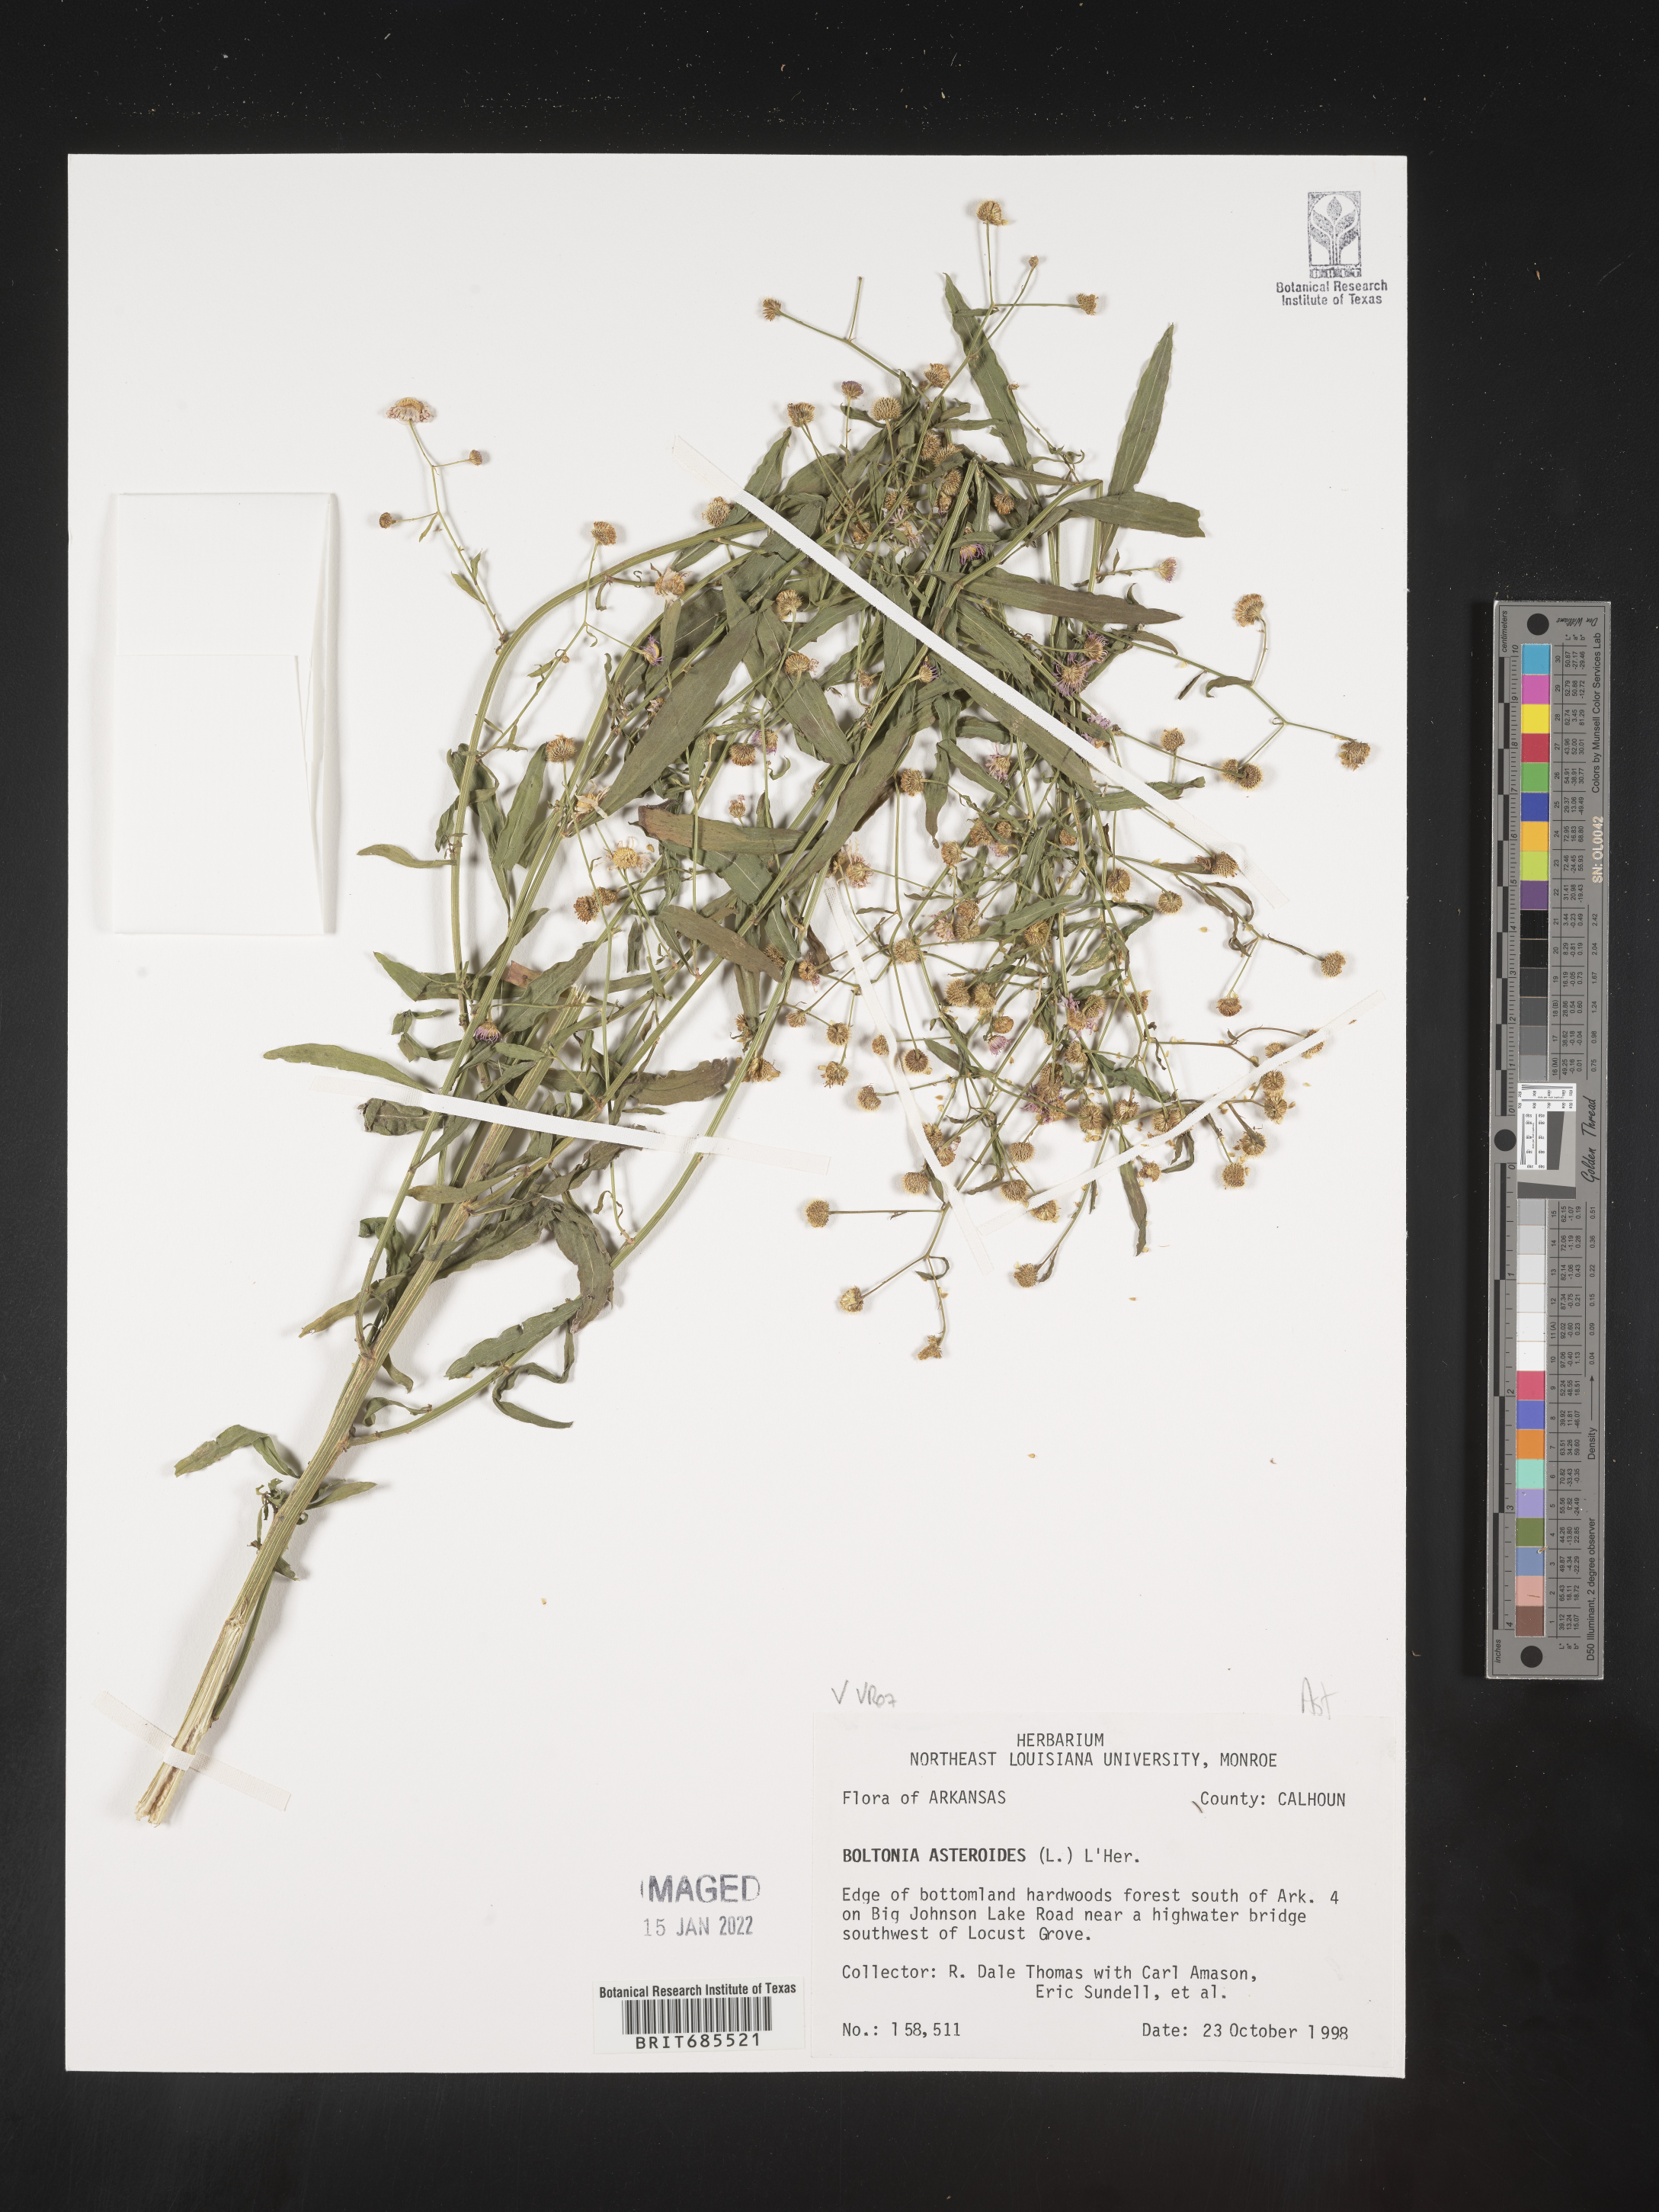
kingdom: Plantae
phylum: Tracheophyta
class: Magnoliopsida
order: Asterales
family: Asteraceae
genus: Boltonia
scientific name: Boltonia asteroides
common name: False chamomile
